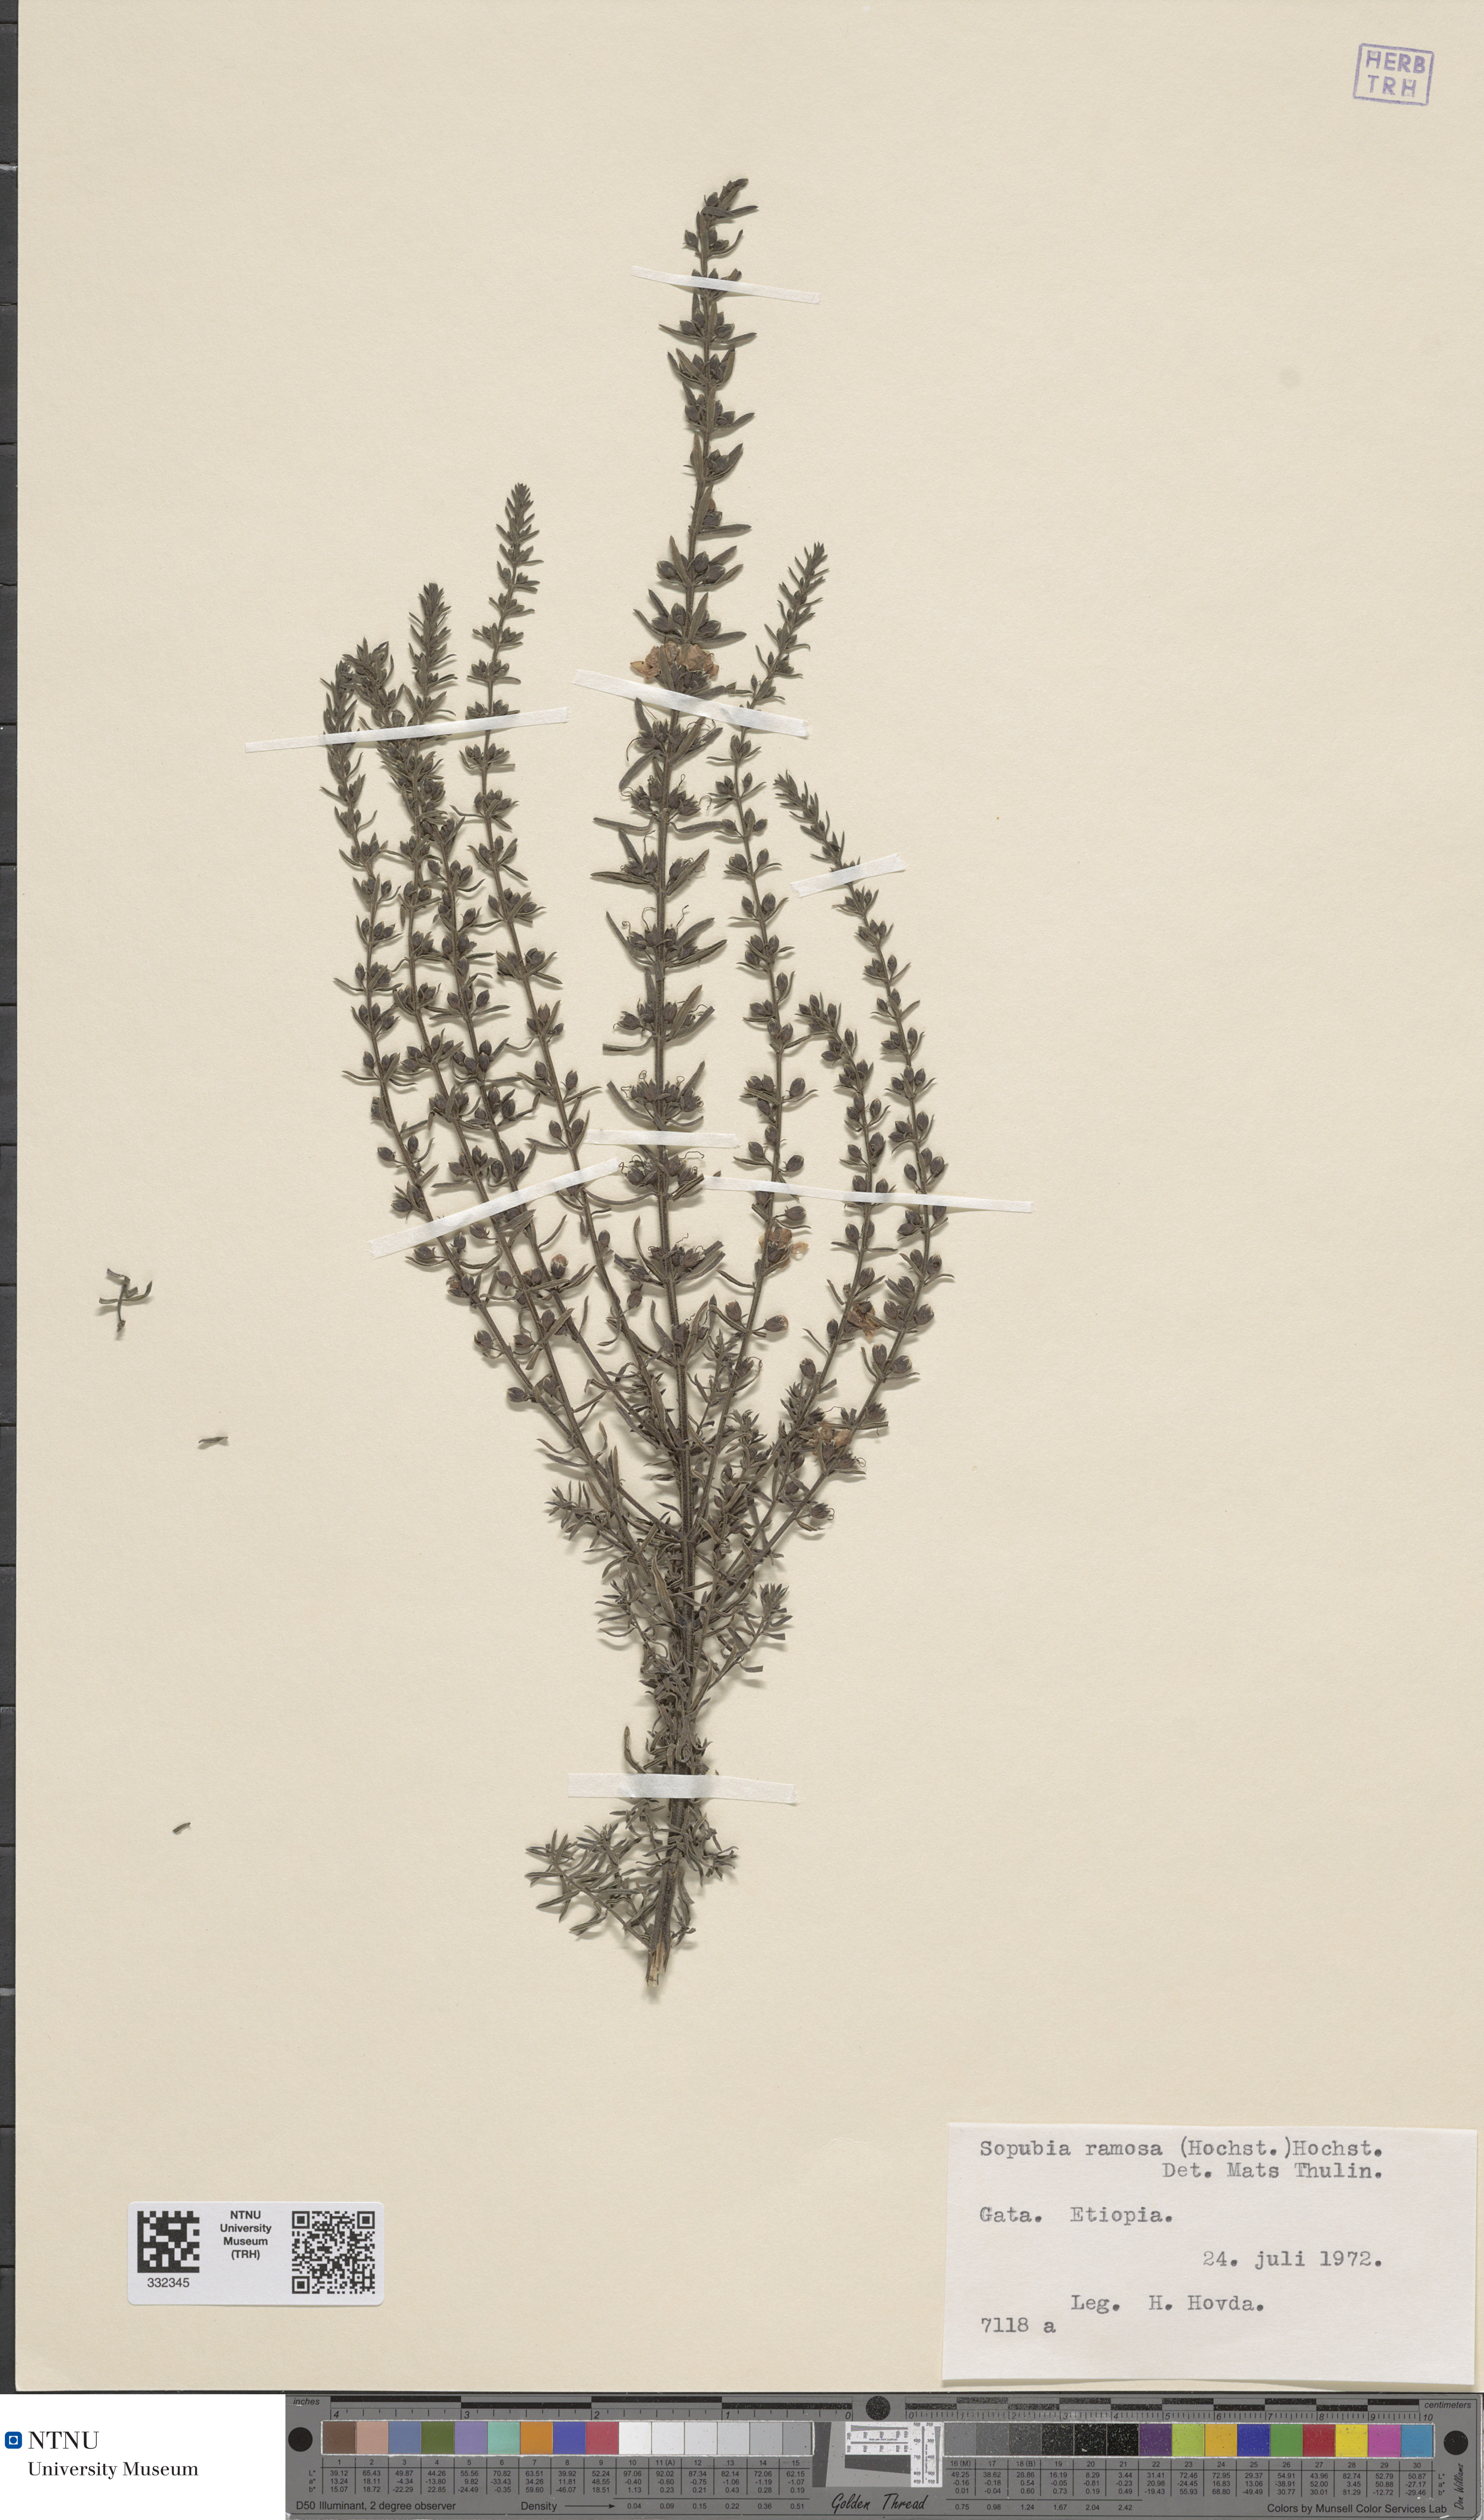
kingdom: Plantae
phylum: Tracheophyta
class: Magnoliopsida
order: Lamiales
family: Orobanchaceae
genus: Sopubia
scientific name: Sopubia ramosa
